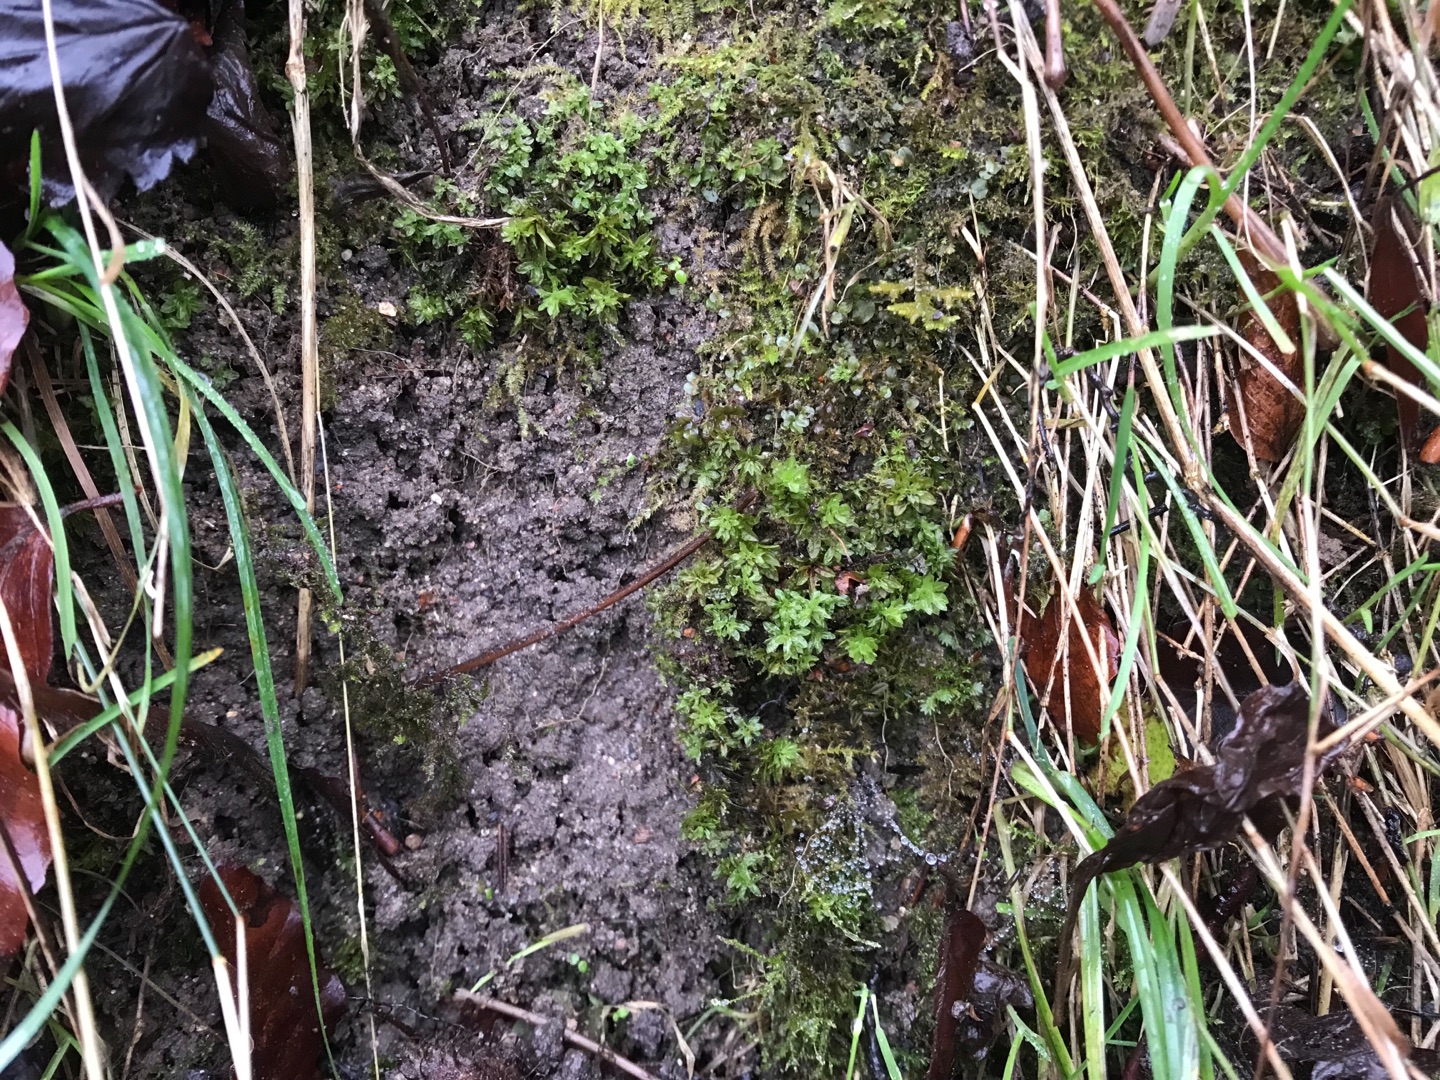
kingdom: Plantae
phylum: Bryophyta
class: Bryopsida
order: Encalyptales
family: Encalyptaceae
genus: Encalypta
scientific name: Encalypta streptocarpa
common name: Stor klokkehætte
